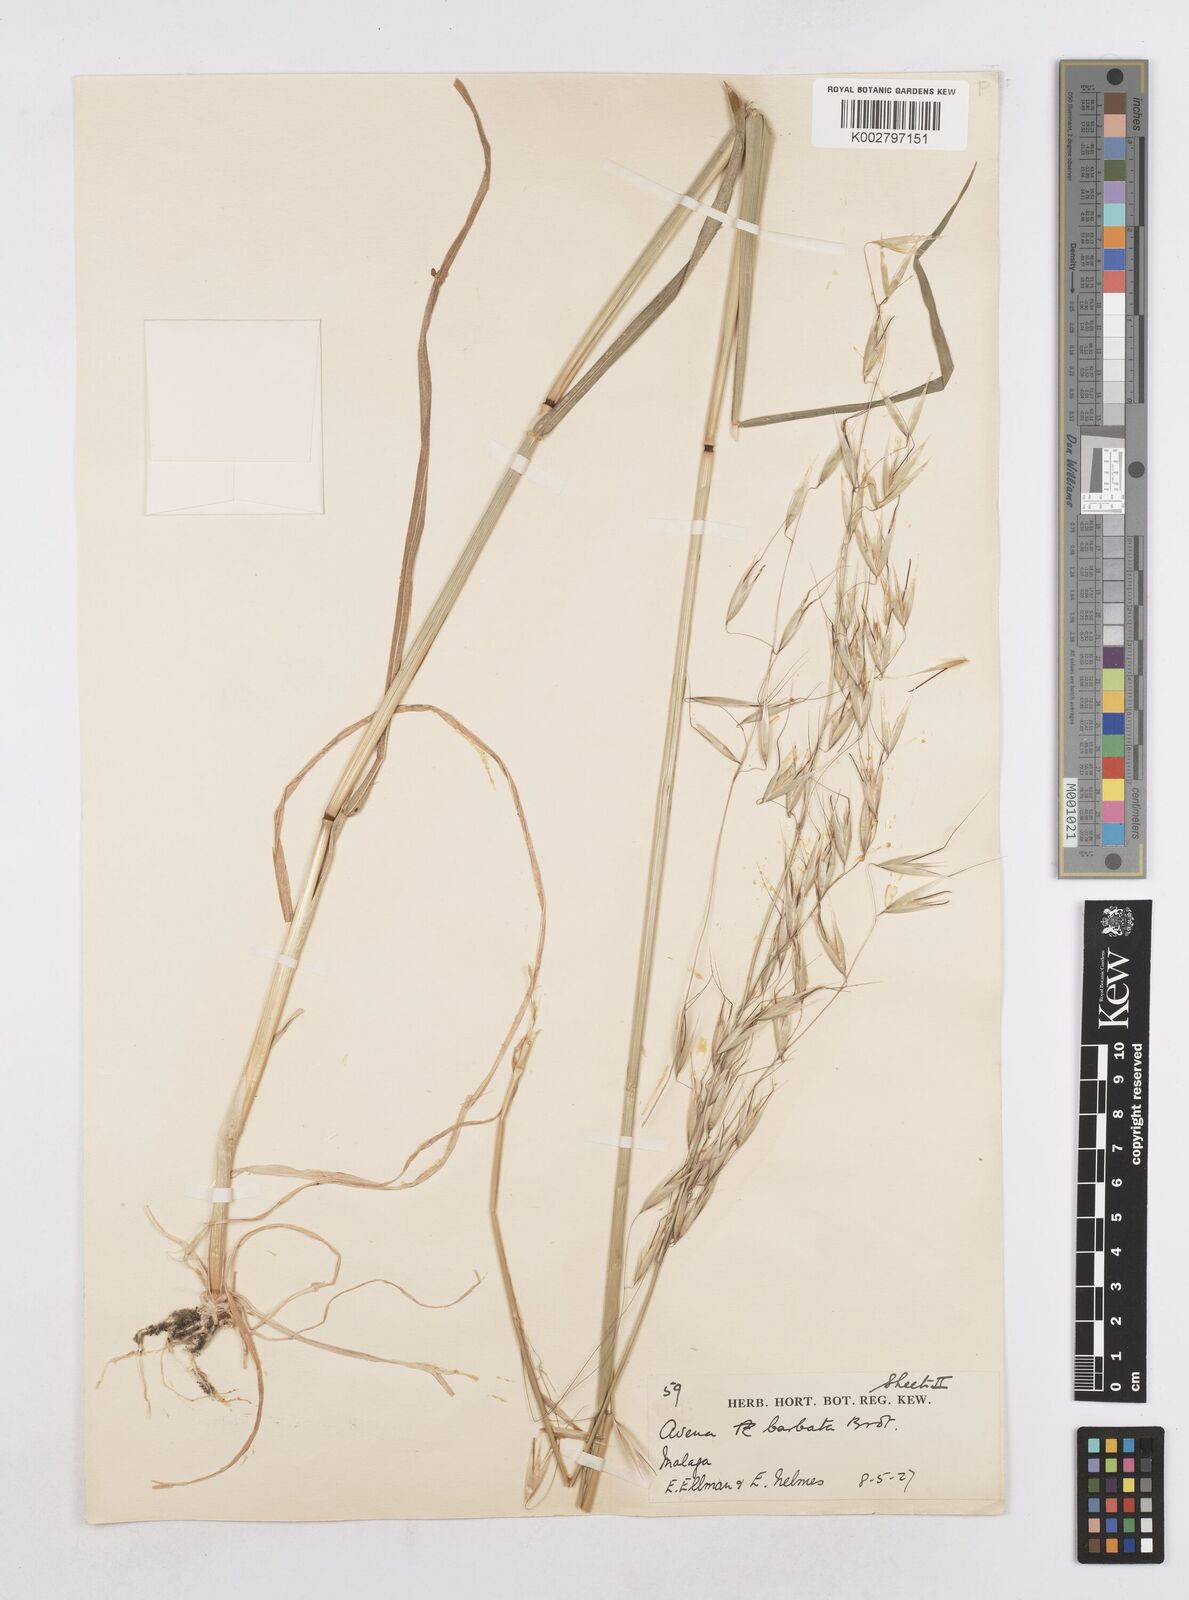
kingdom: Plantae
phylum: Tracheophyta
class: Liliopsida
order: Poales
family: Poaceae
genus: Avena
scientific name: Avena
